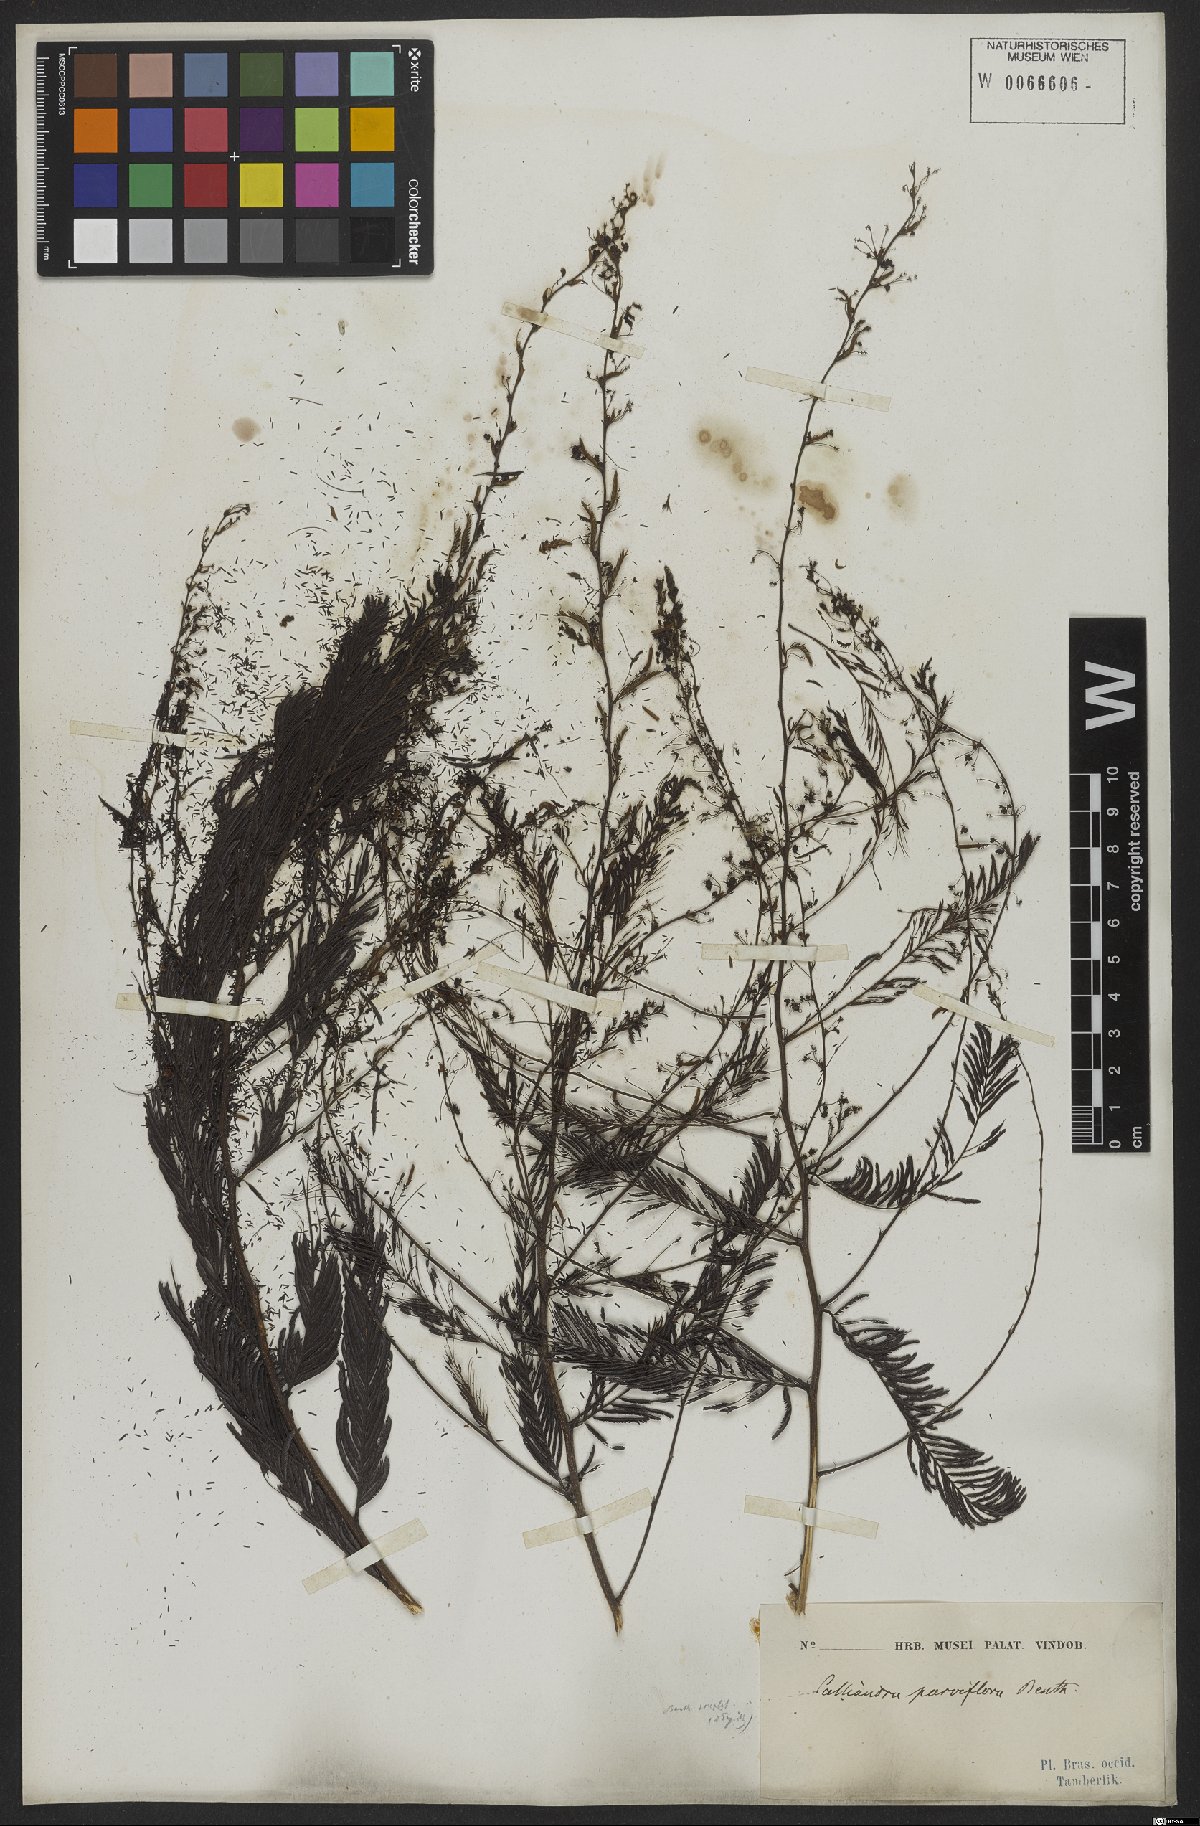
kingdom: Plantae
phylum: Tracheophyta
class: Magnoliopsida
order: Fabales
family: Fabaceae
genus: Calliandra
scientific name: Calliandra parviflora
